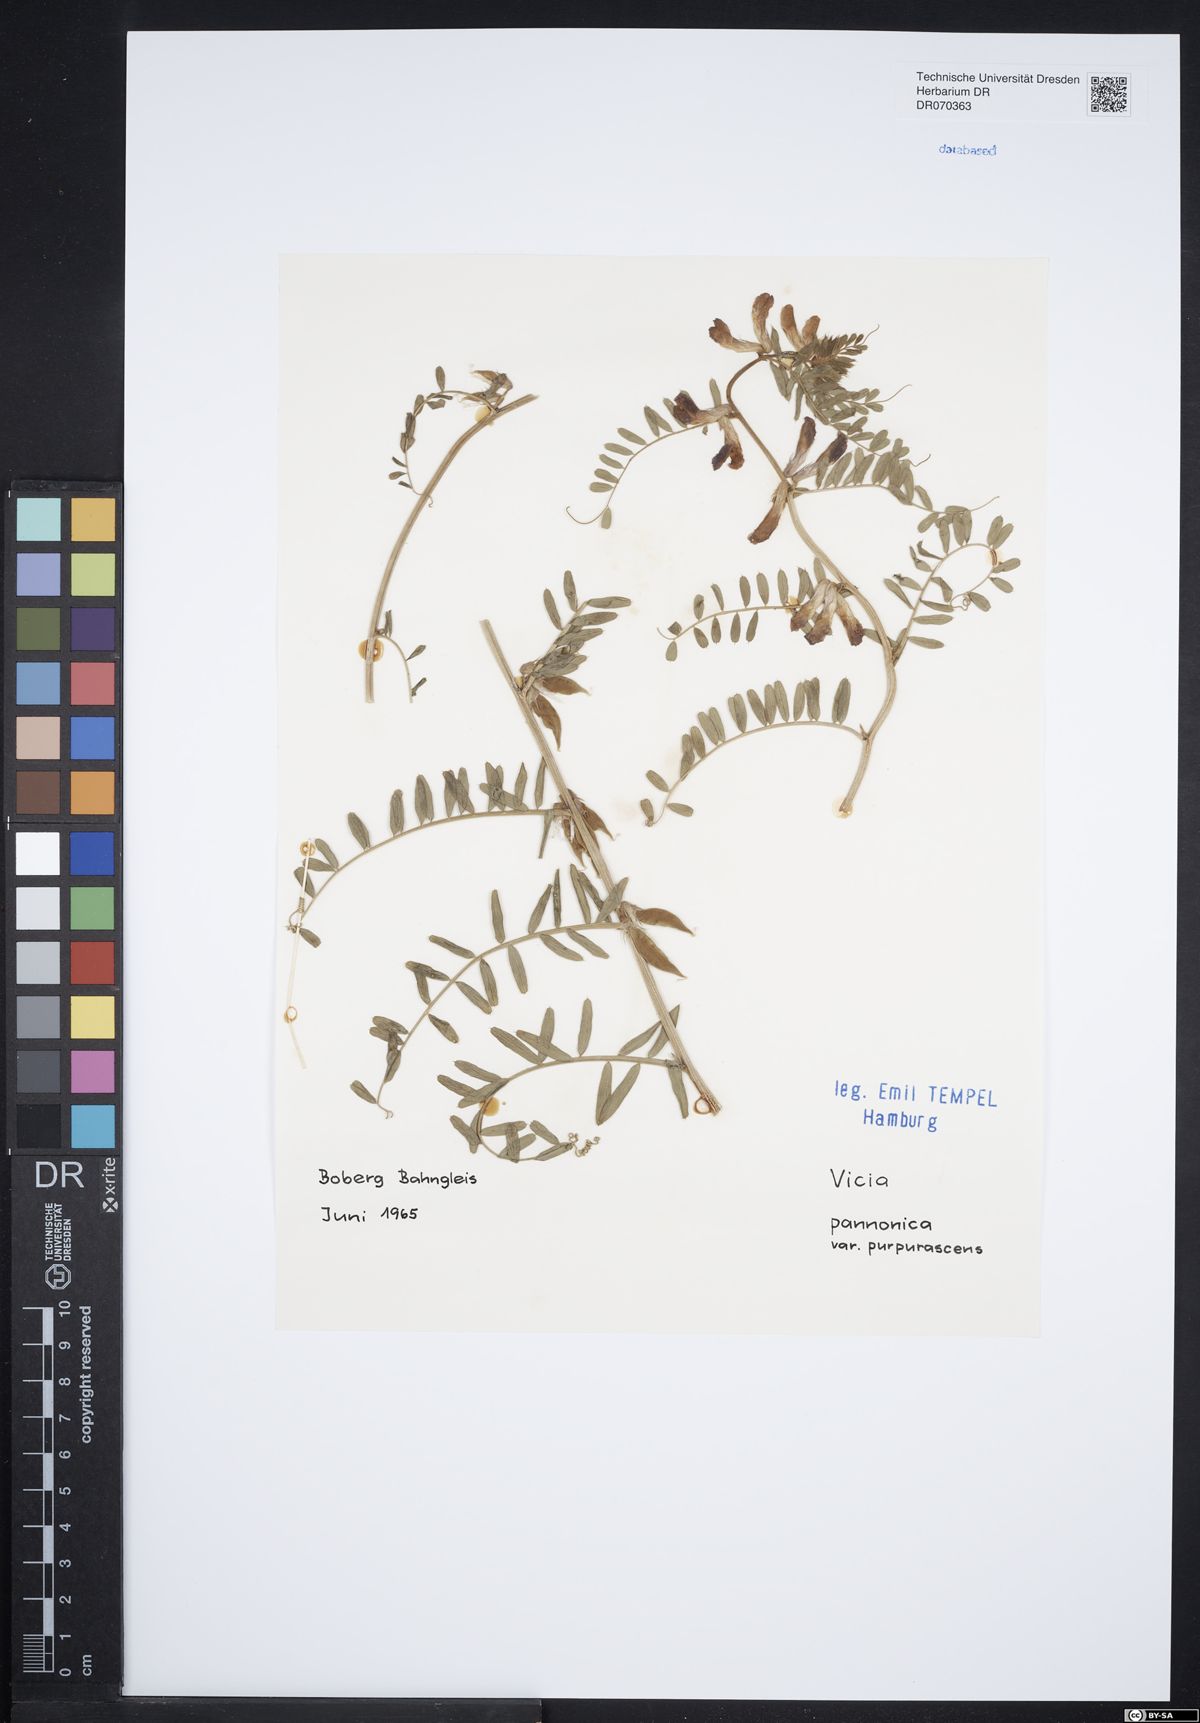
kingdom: Plantae
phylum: Tracheophyta
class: Magnoliopsida
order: Fabales
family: Fabaceae
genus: Vicia
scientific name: Vicia pannonica
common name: Hungarian vetch
